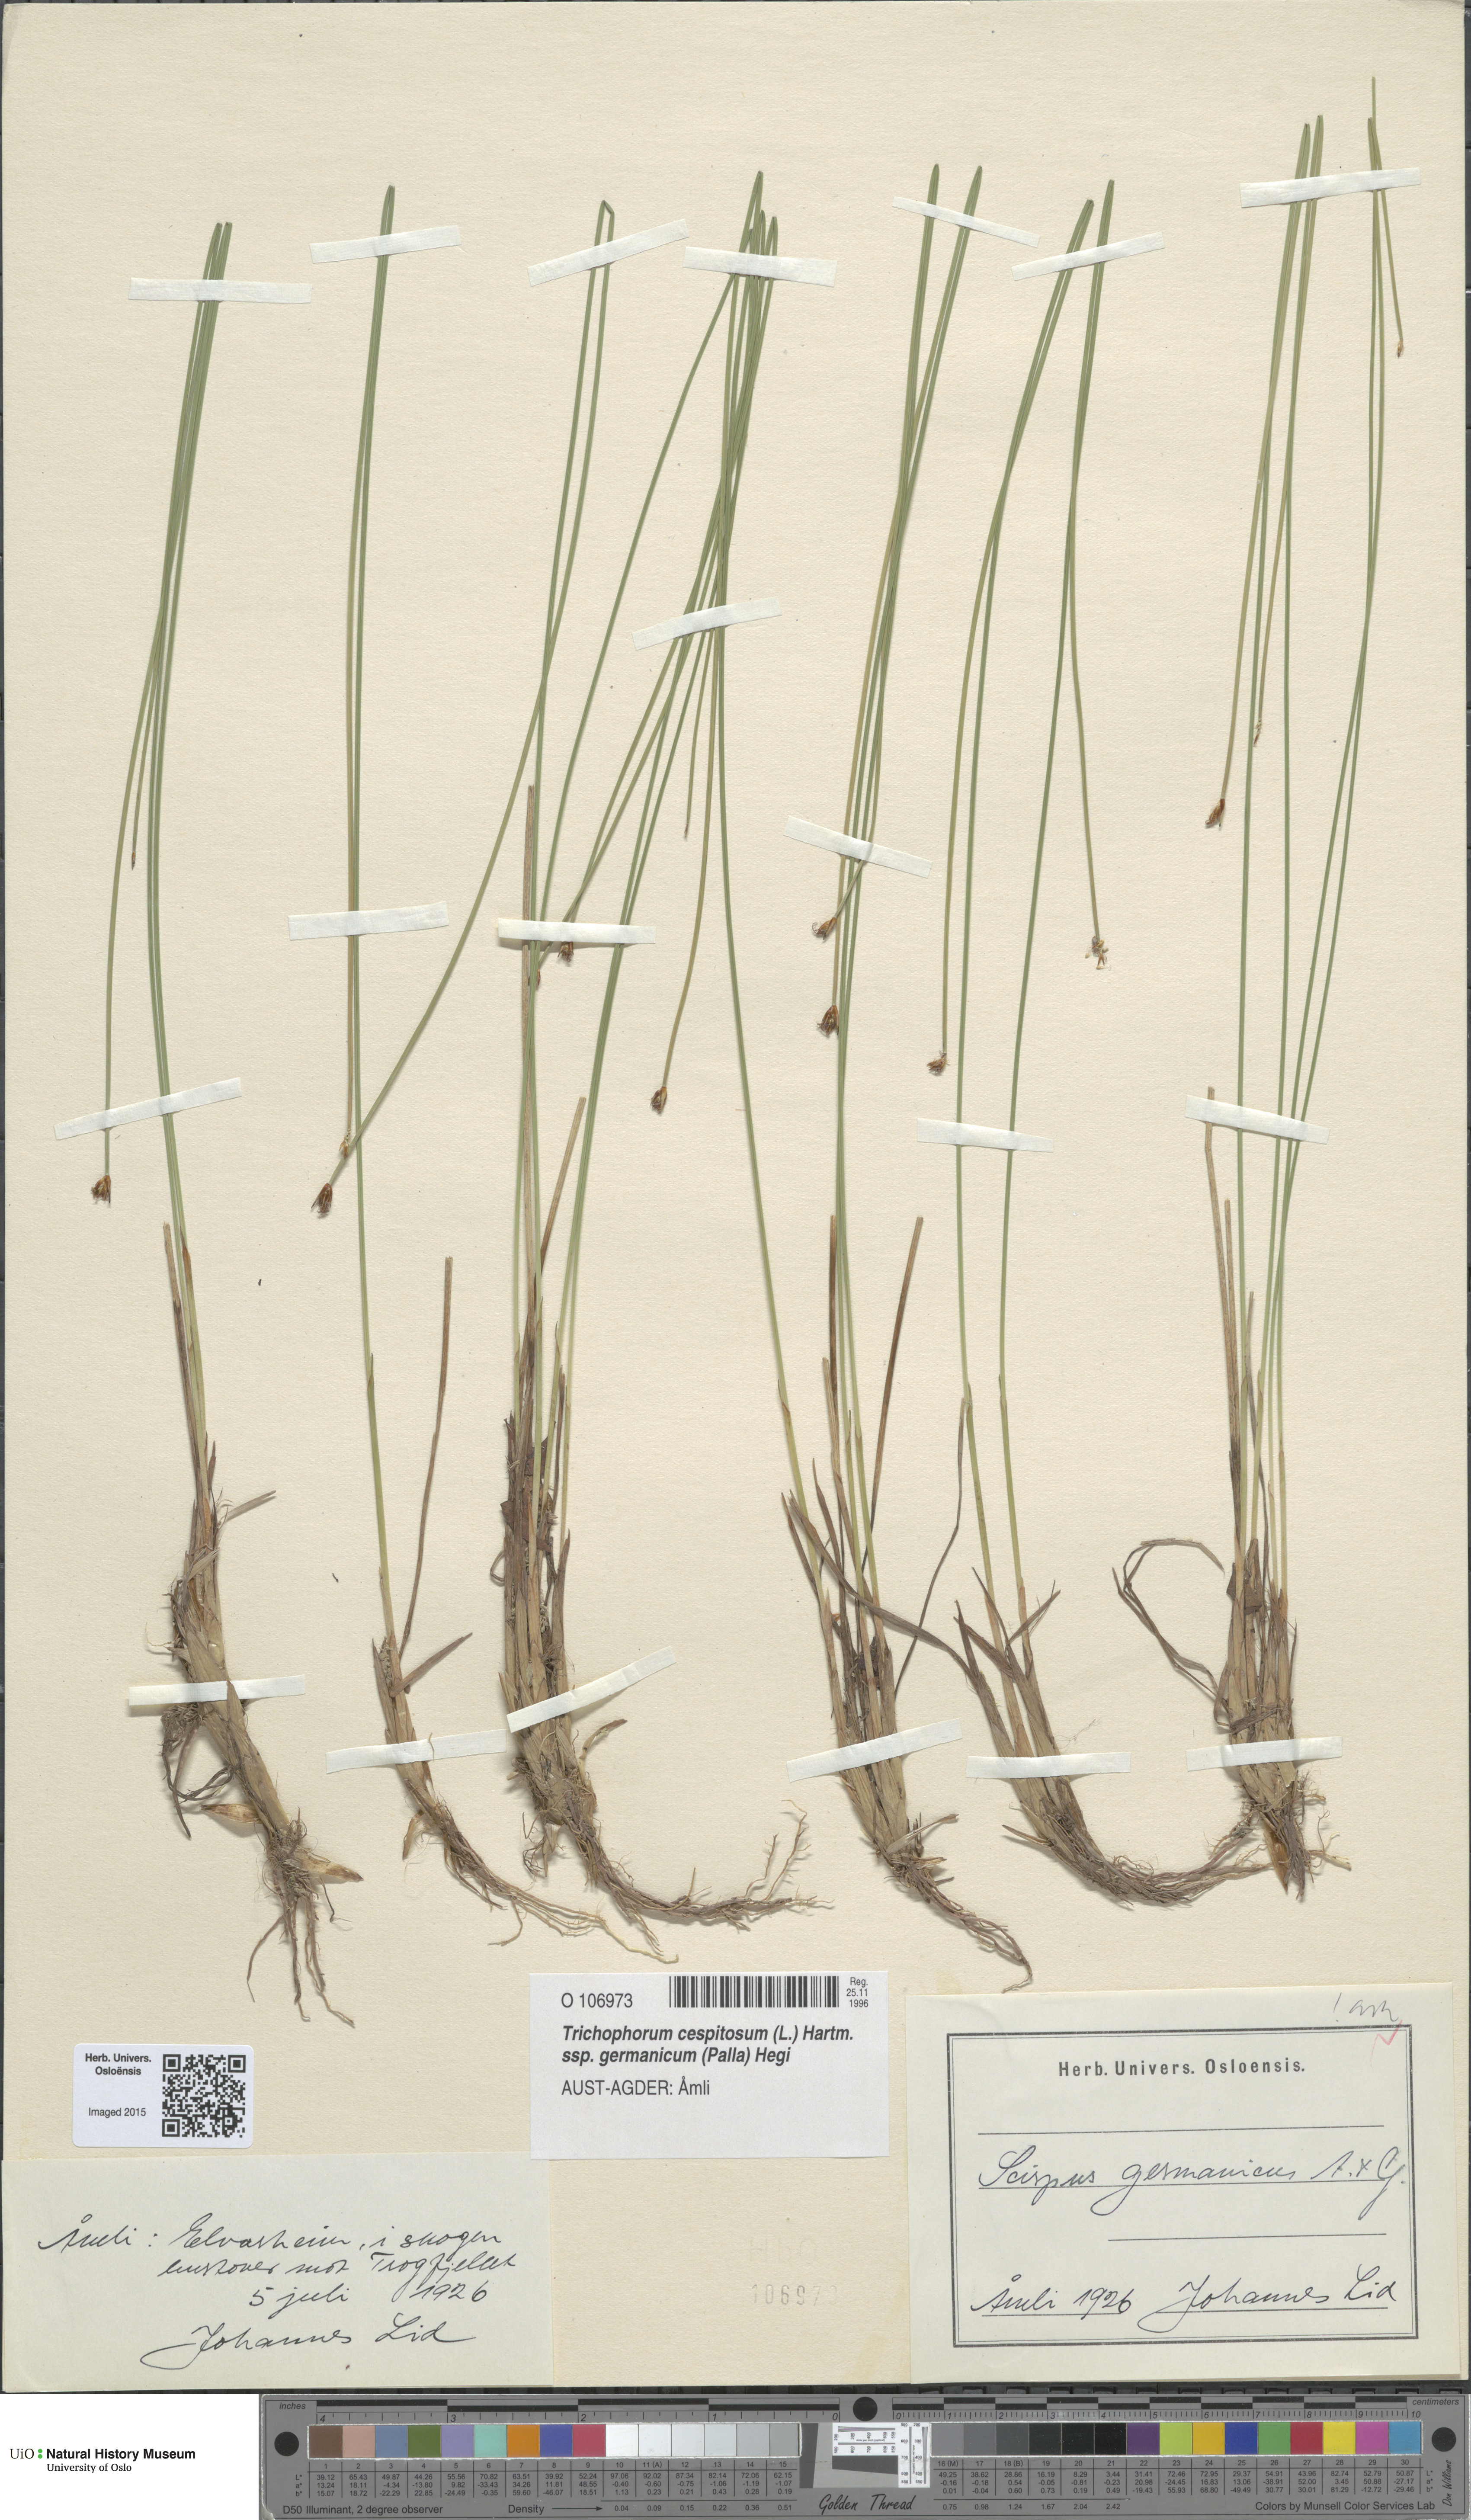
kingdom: Plantae
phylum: Tracheophyta
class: Liliopsida
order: Poales
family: Cyperaceae
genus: Trichophorum
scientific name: Trichophorum cespitosum
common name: Cespitose bulrush
